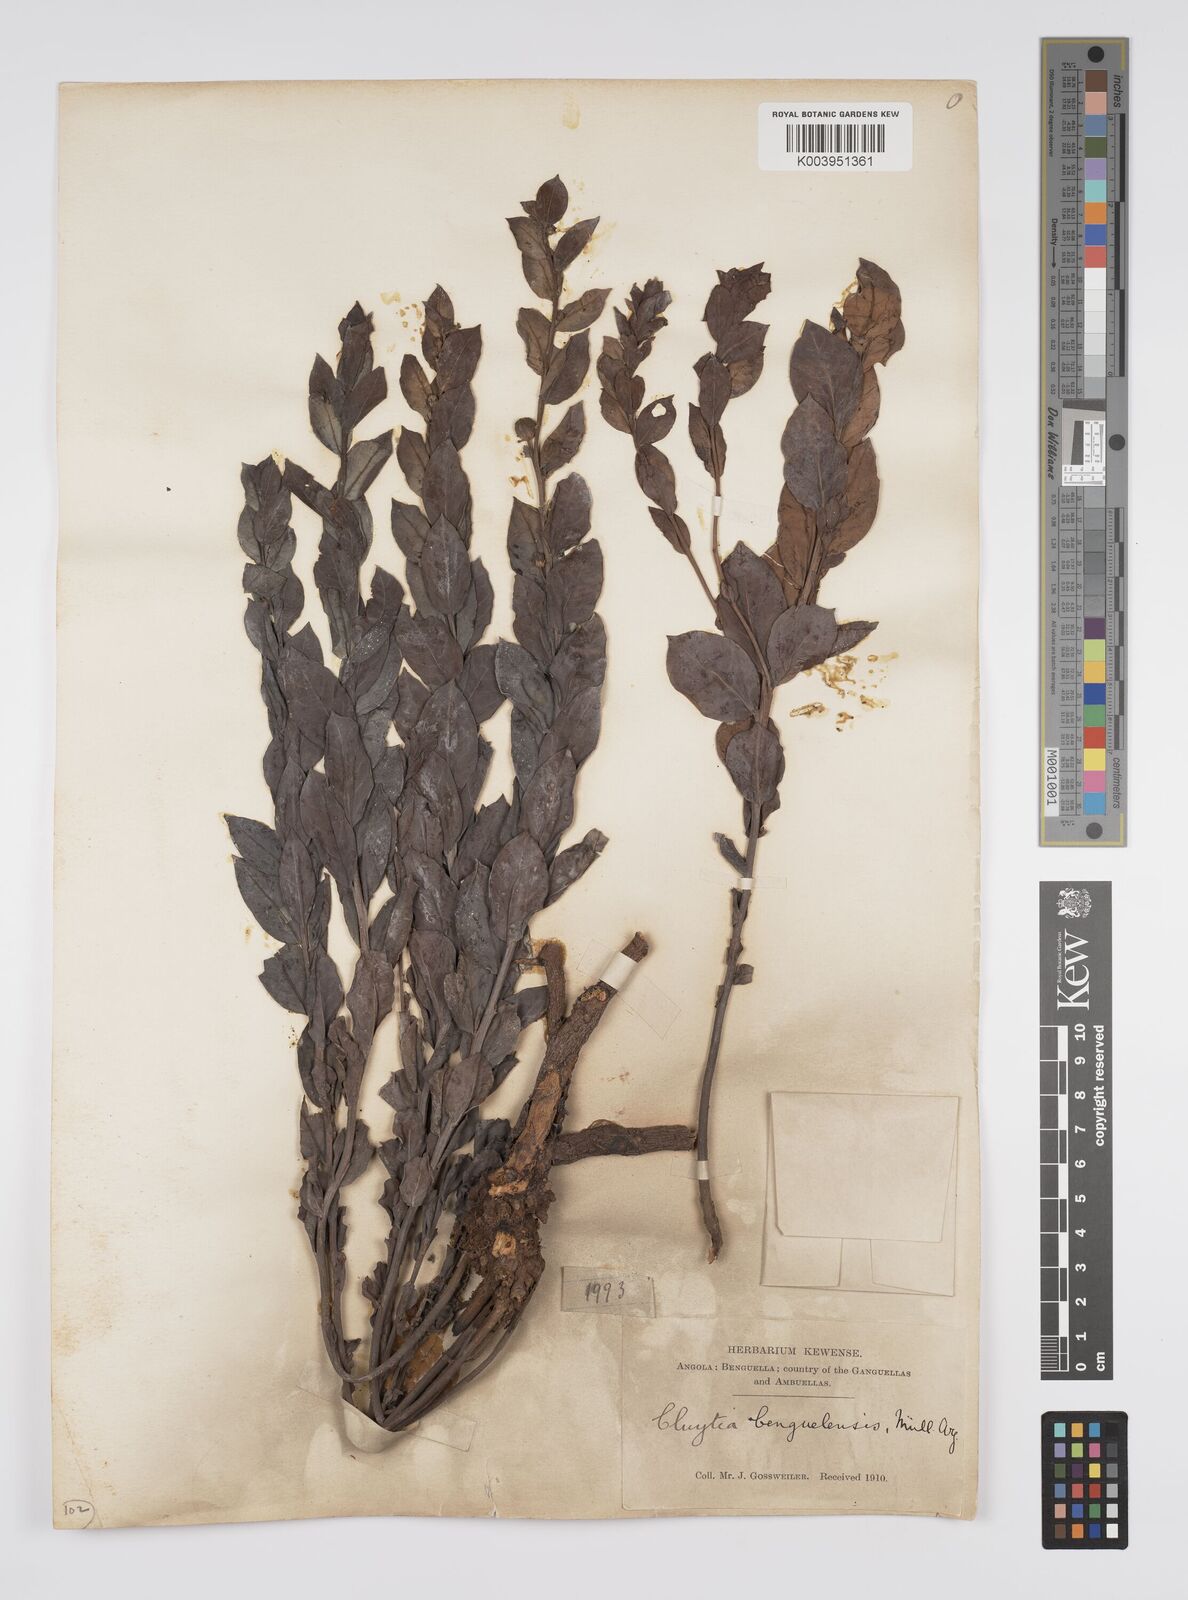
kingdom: Plantae
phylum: Tracheophyta
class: Magnoliopsida
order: Malpighiales
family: Peraceae
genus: Clutia
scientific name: Clutia benguelensis
